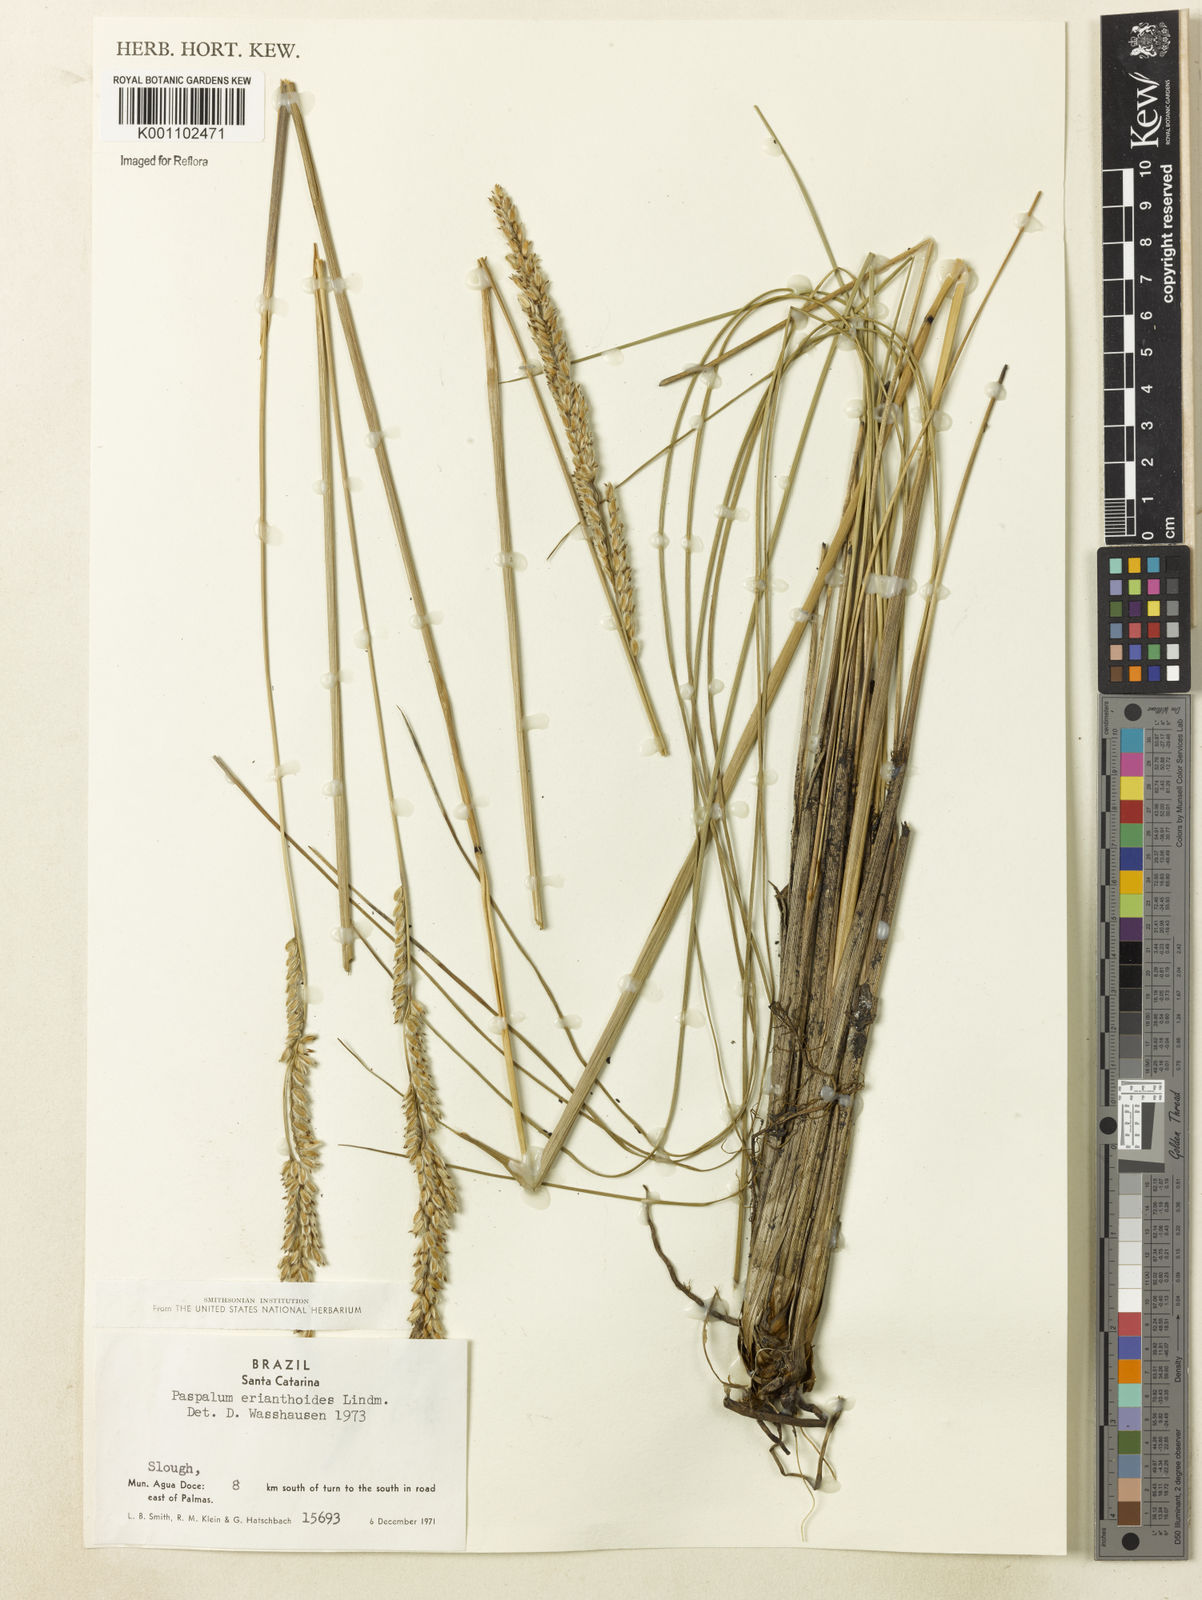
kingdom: Plantae
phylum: Tracheophyta
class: Liliopsida
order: Poales
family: Poaceae
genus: Paspalum
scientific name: Paspalum erianthoides
